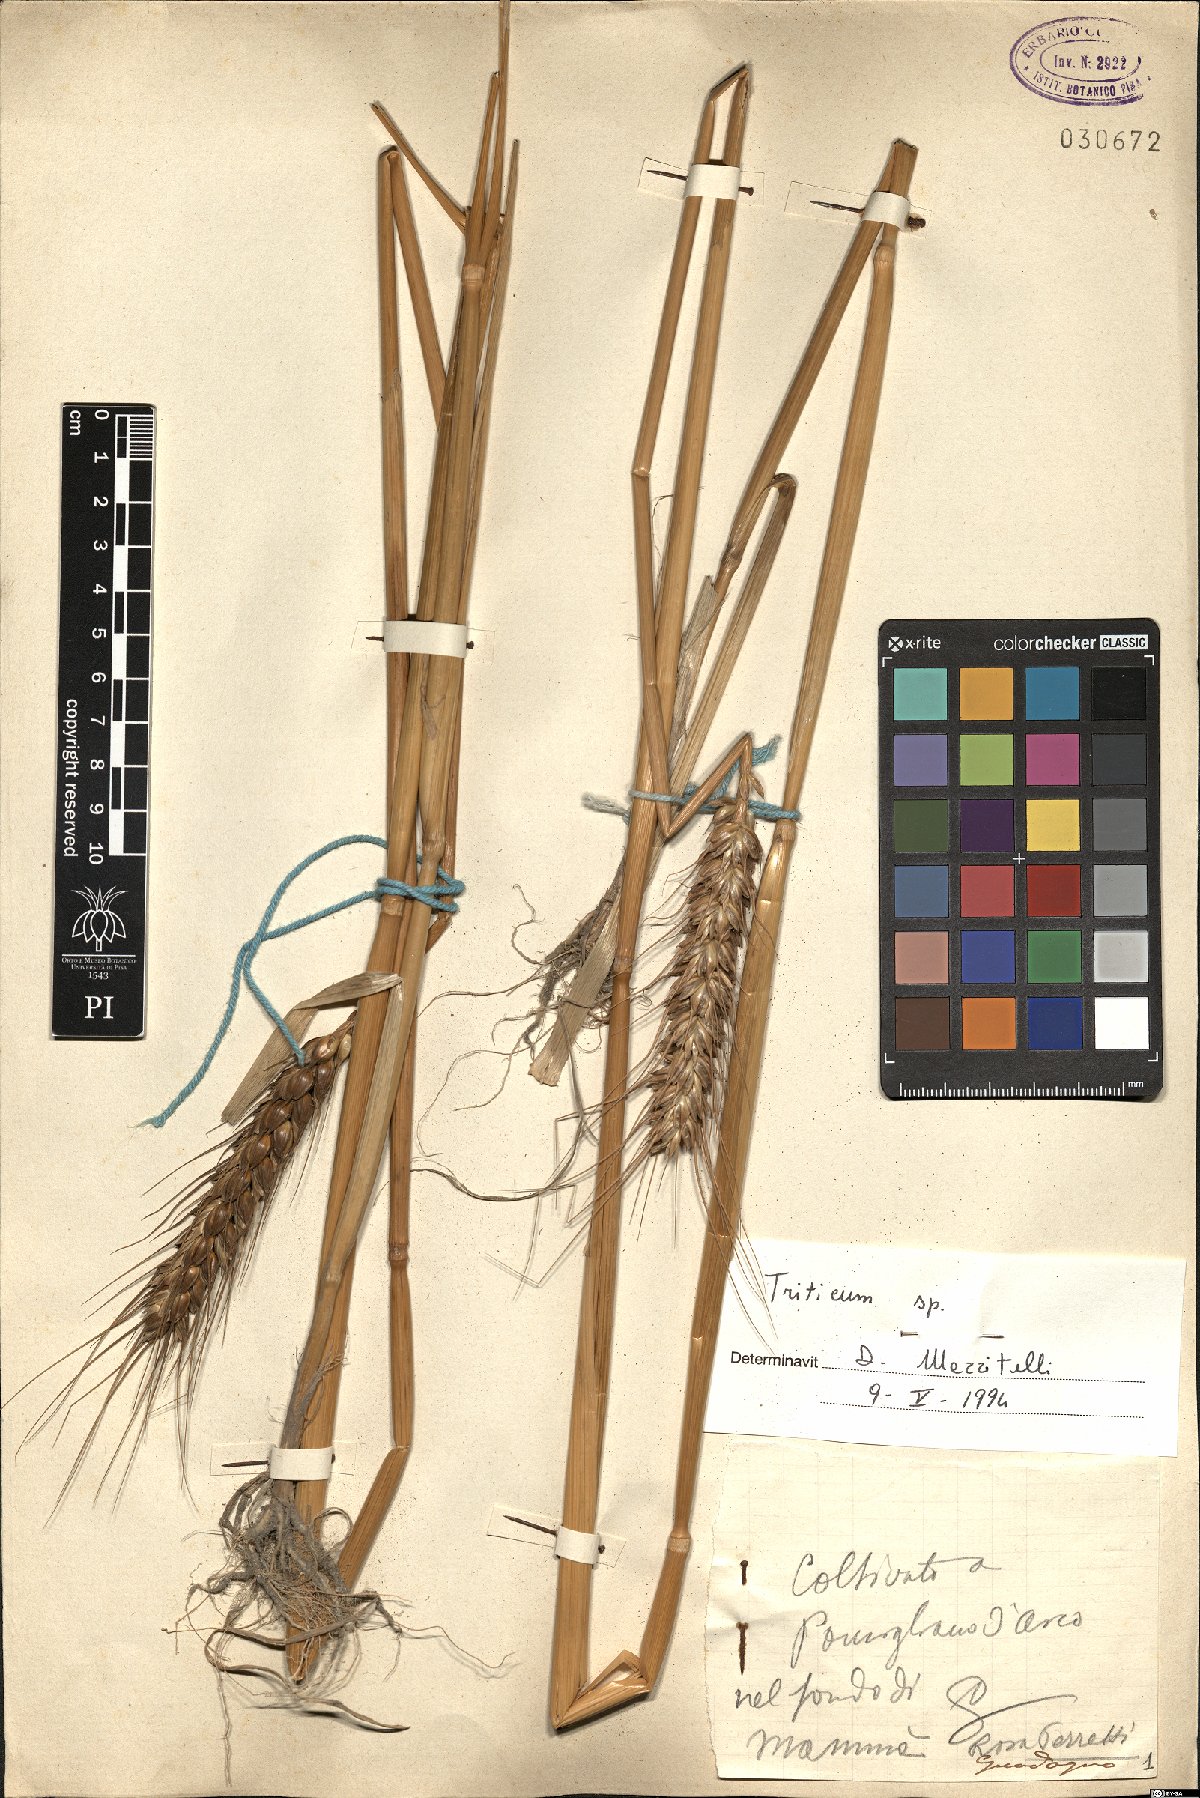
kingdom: Plantae
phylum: Tracheophyta
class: Liliopsida
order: Poales
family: Poaceae
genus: Triticum
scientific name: Triticum
